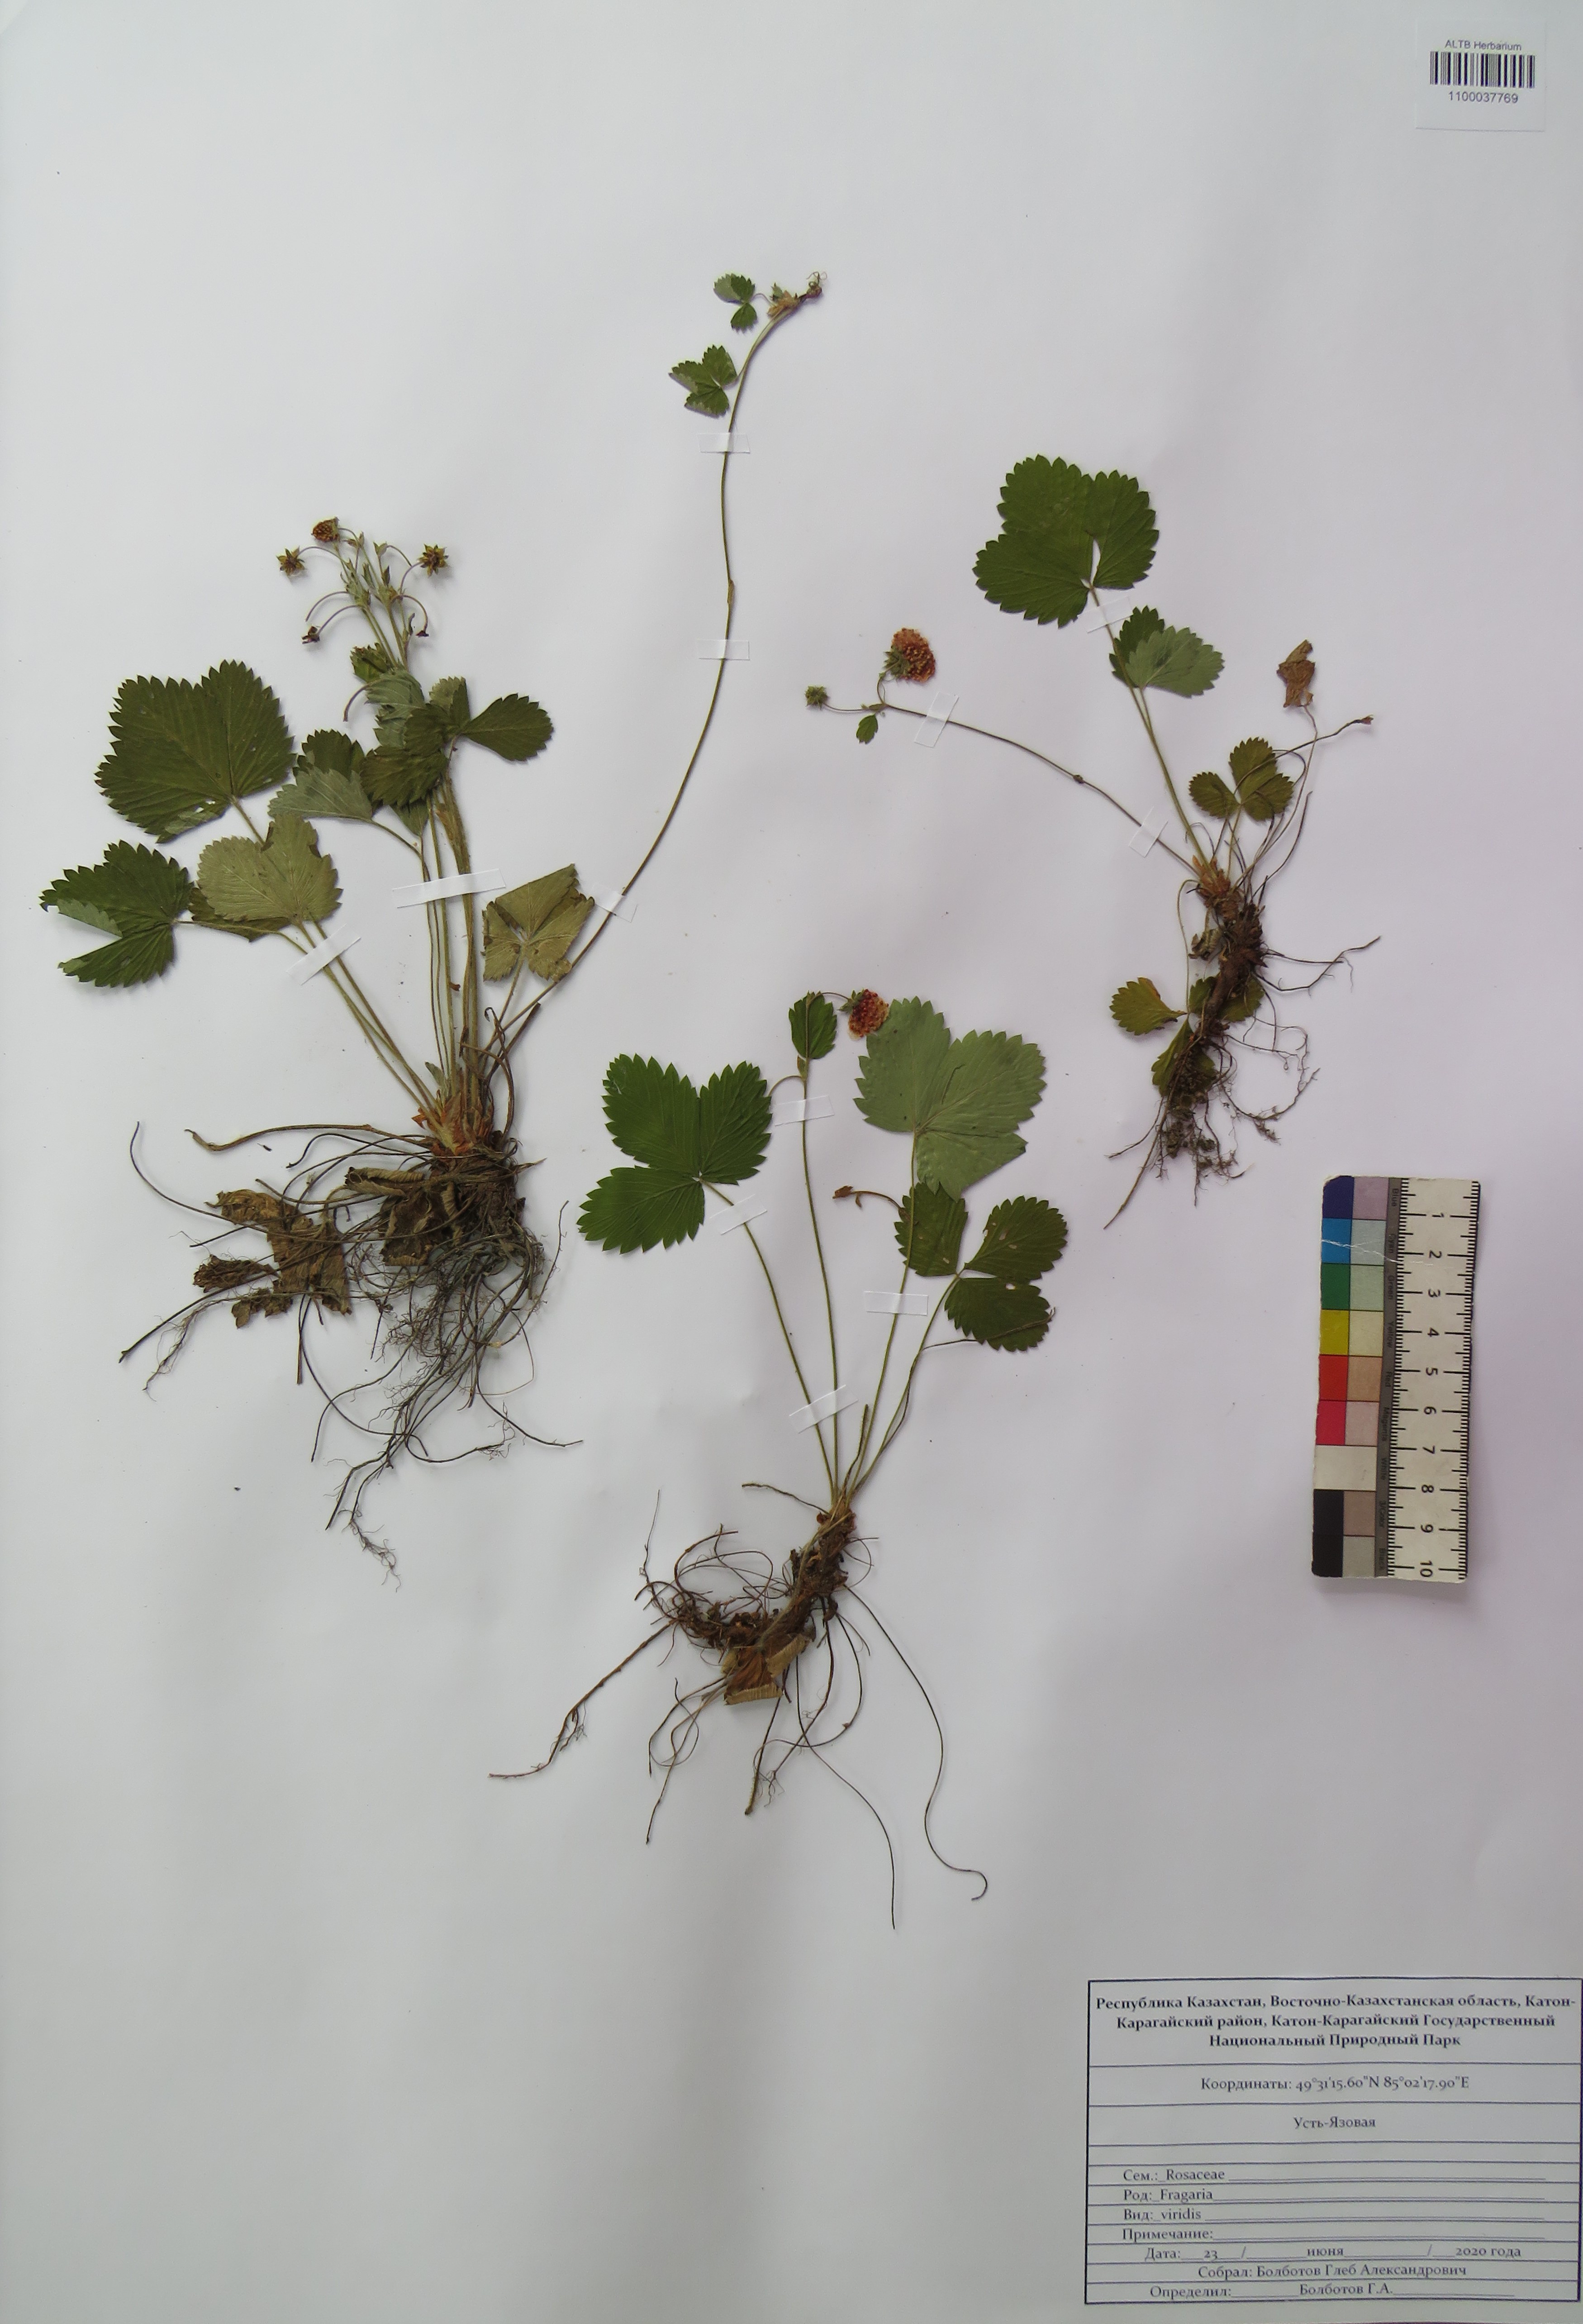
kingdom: Plantae
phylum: Tracheophyta
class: Magnoliopsida
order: Rosales
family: Rosaceae
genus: Fragaria
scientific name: Fragaria viridis
